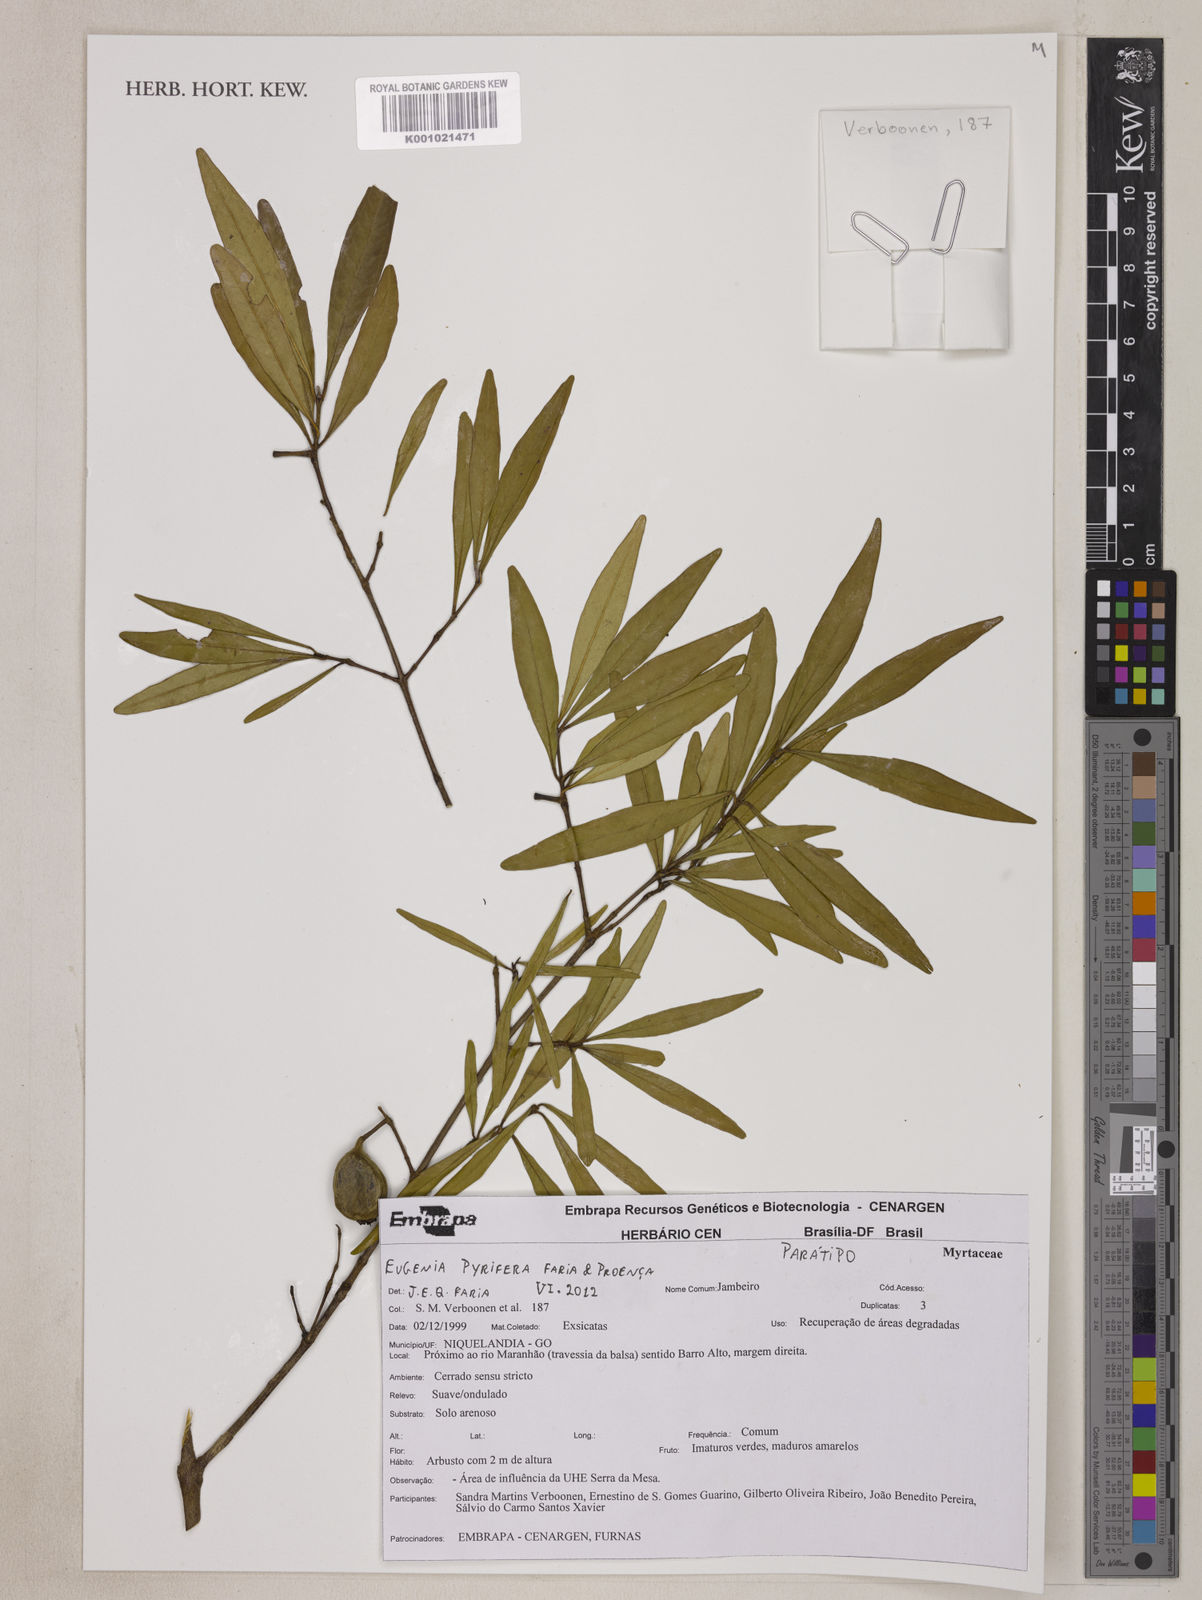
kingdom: Plantae
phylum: Tracheophyta
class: Magnoliopsida
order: Myrtales
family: Myrtaceae
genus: Eugenia
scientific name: Eugenia
